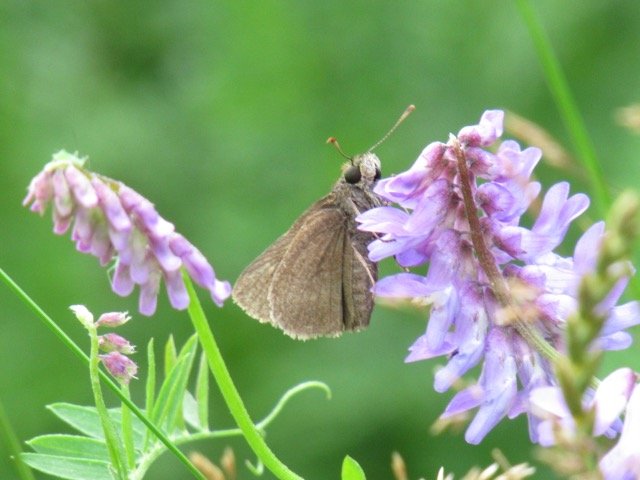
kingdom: Animalia
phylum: Arthropoda
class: Insecta
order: Lepidoptera
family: Hesperiidae
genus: Euphyes
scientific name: Euphyes vestris
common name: Dun Skipper
